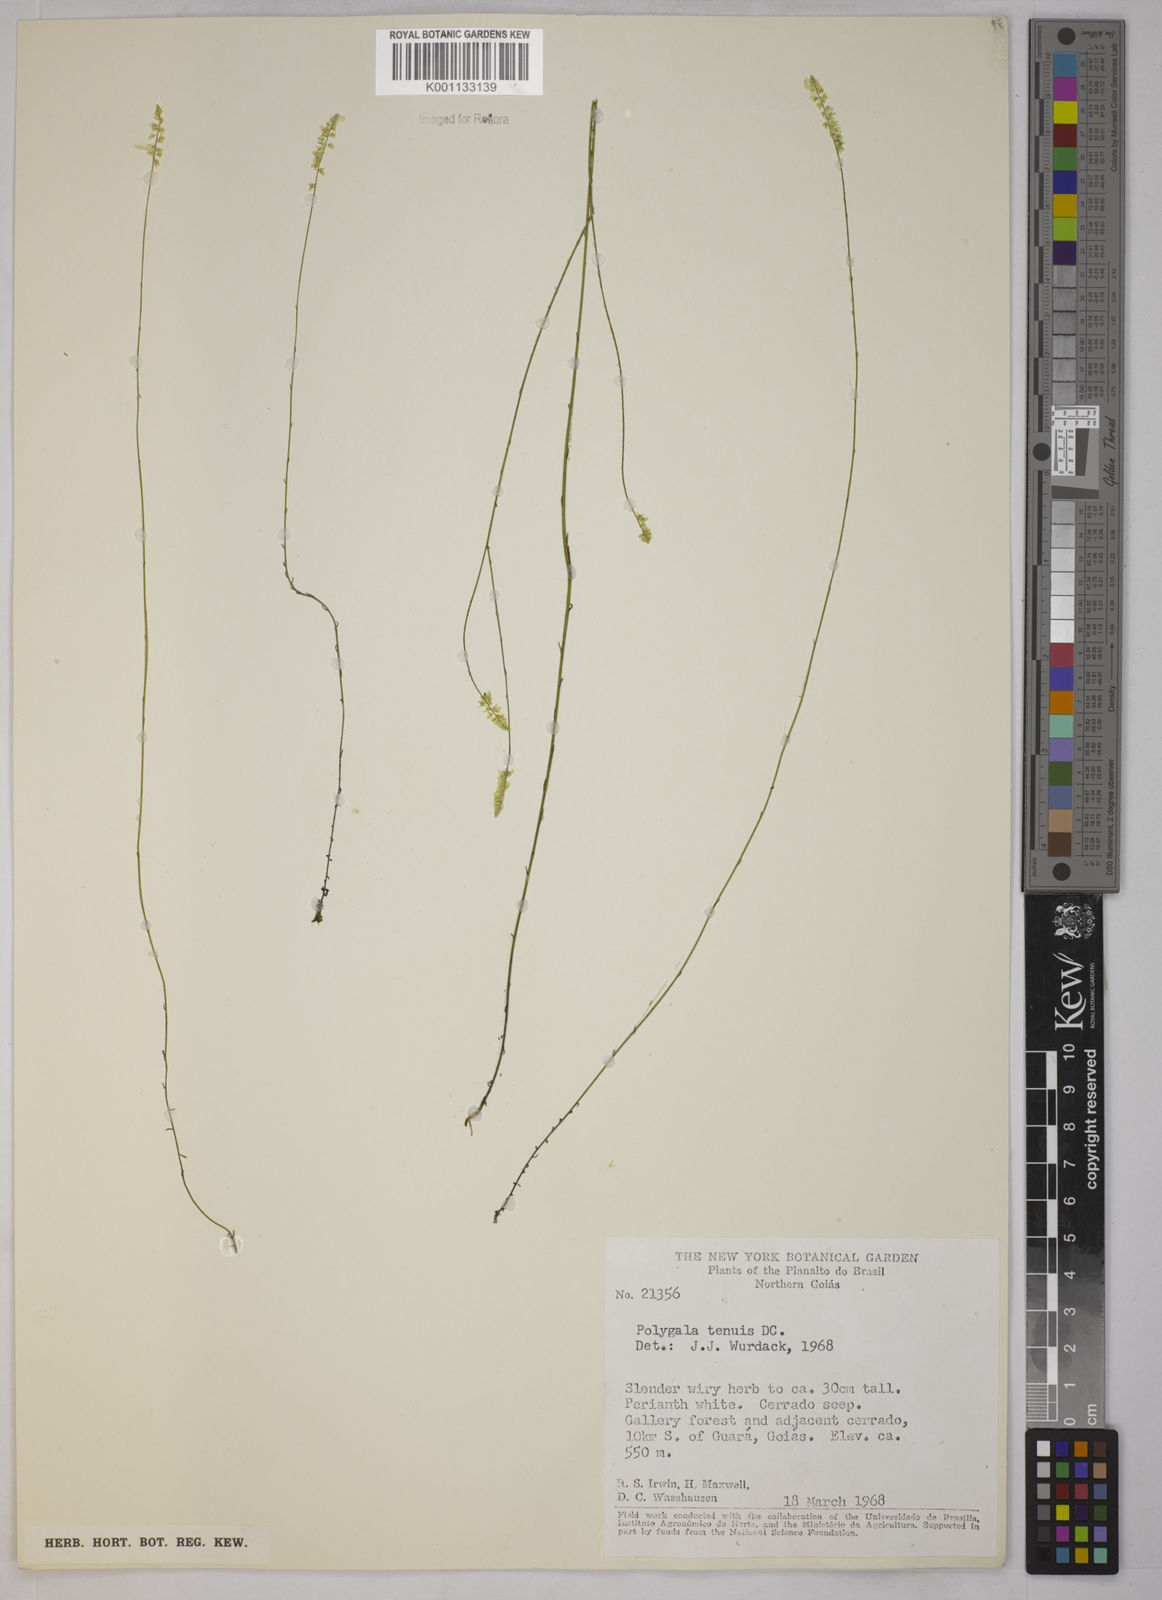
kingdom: Plantae
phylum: Tracheophyta
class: Magnoliopsida
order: Fabales
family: Polygalaceae
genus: Polygala
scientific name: Polygala tenuis
